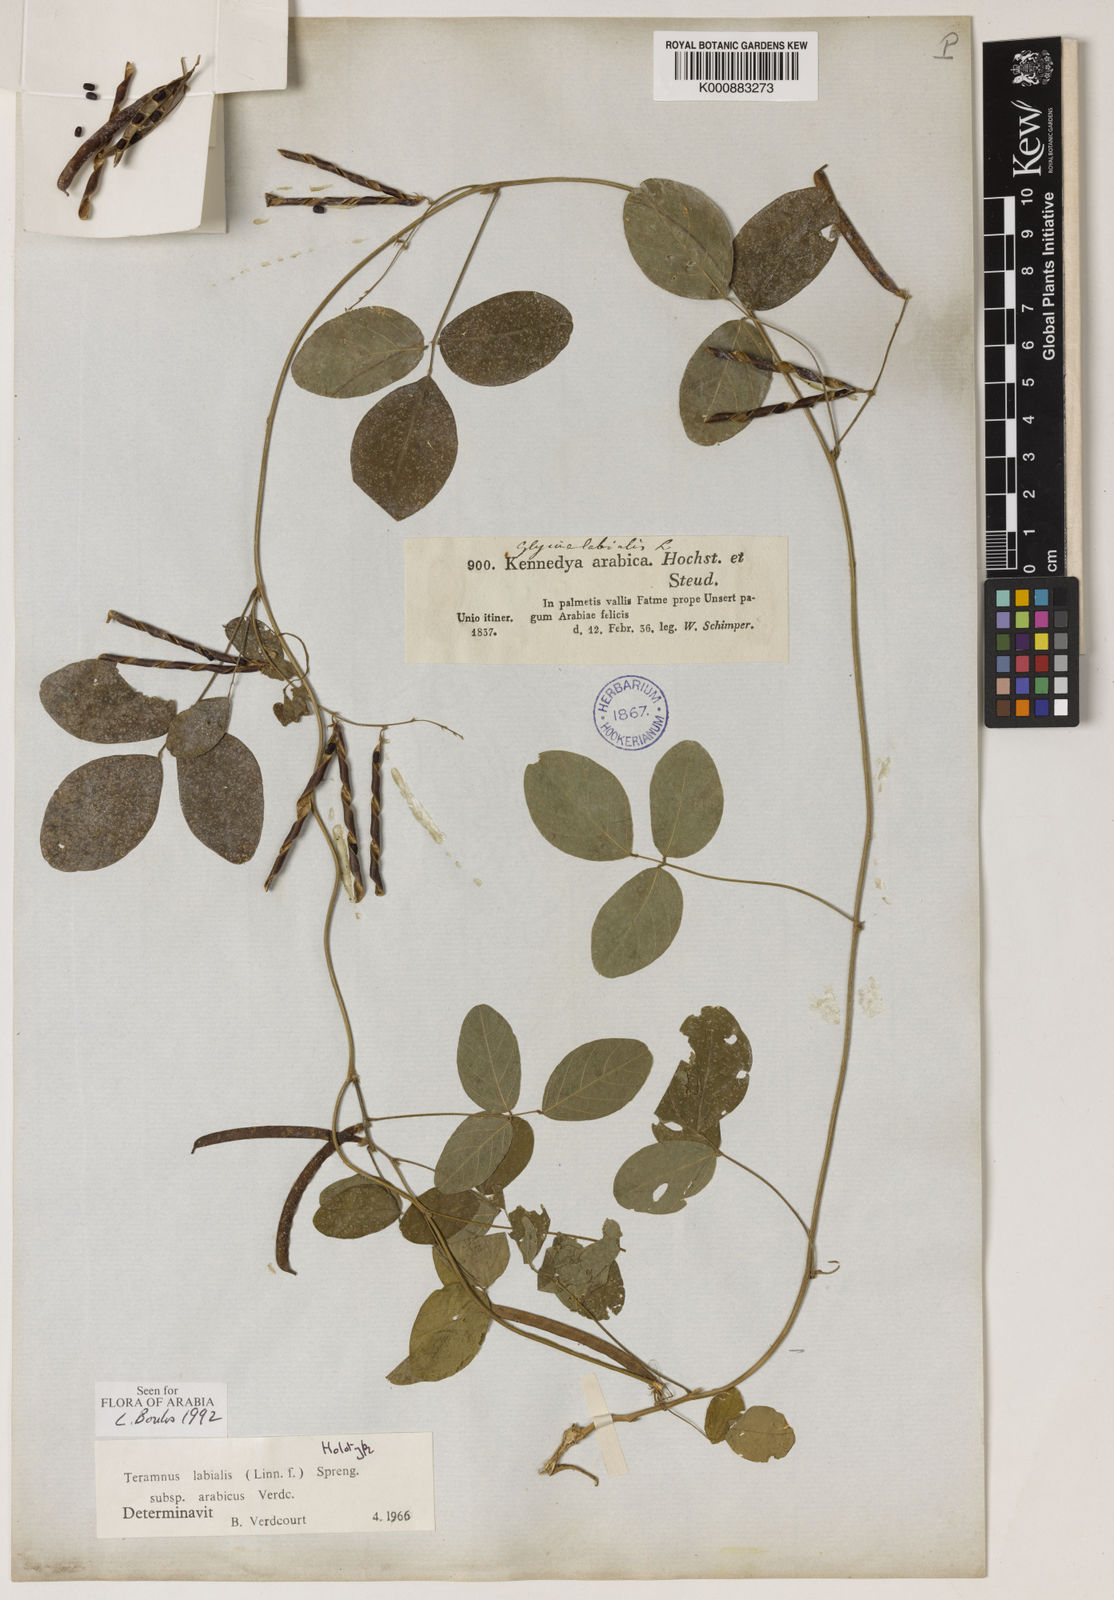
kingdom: Plantae
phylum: Tracheophyta
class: Magnoliopsida
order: Fabales
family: Fabaceae
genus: Teramnus
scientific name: Teramnus labialis
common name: Blue wiss
